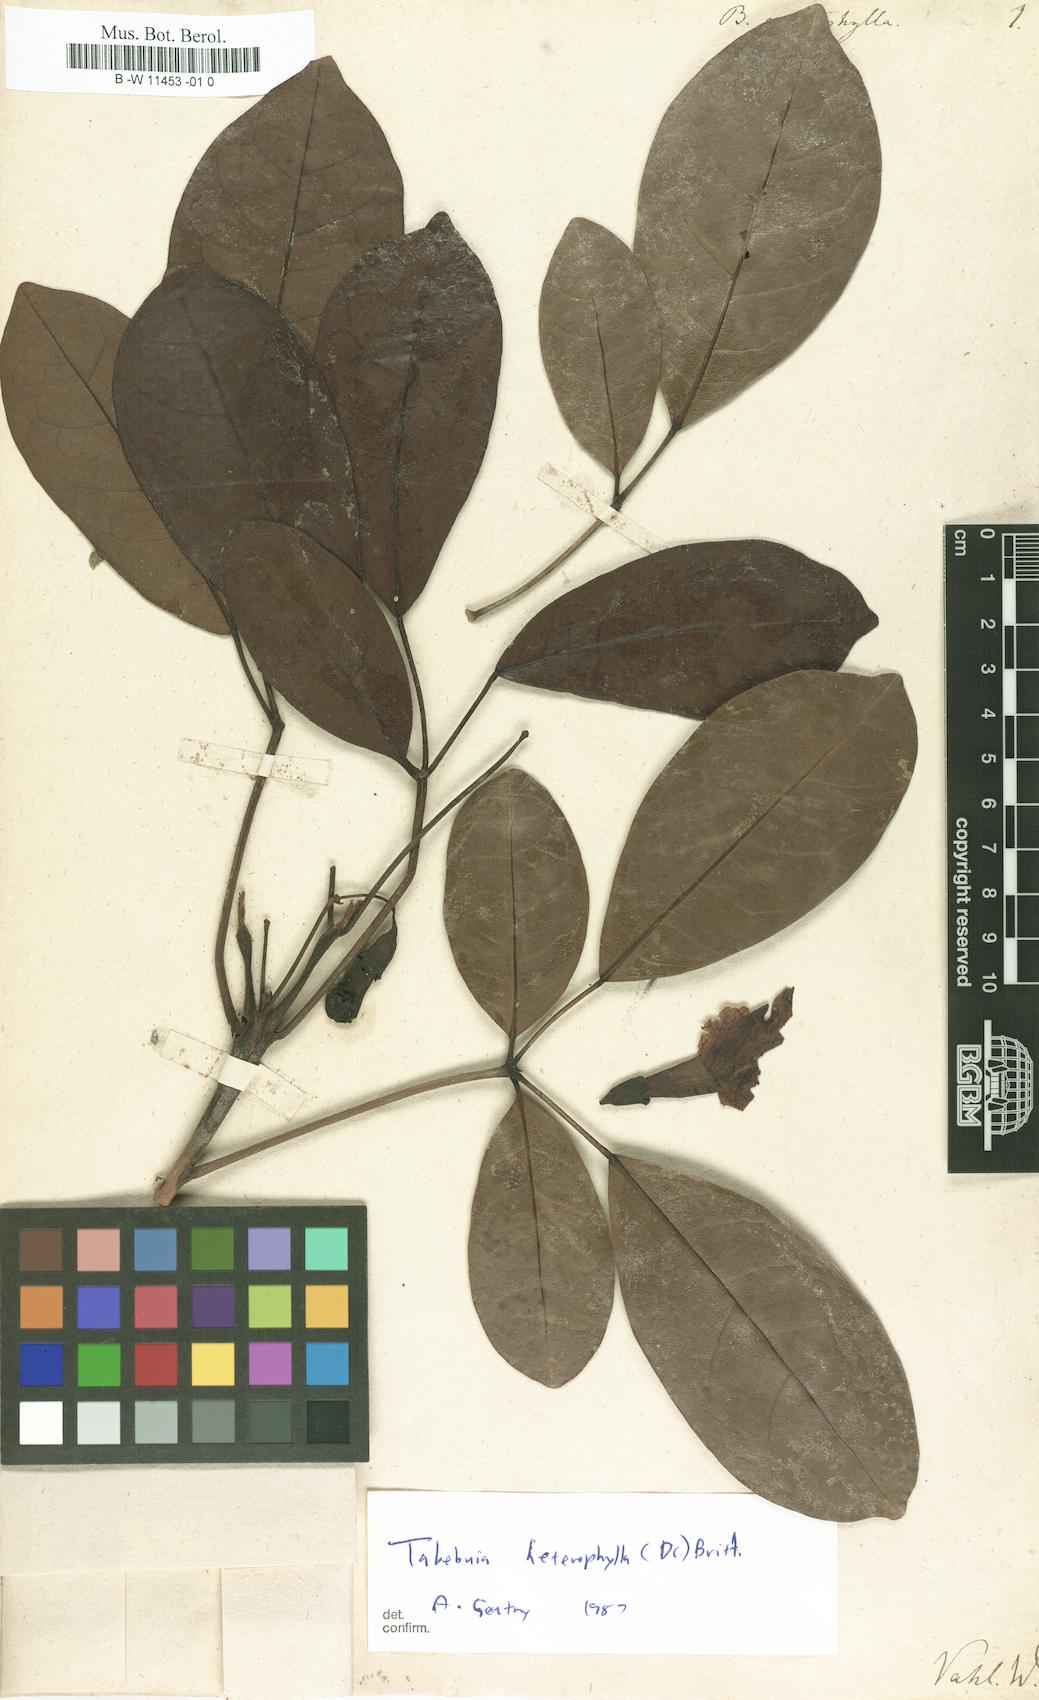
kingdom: Plantae
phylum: Tracheophyta
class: Magnoliopsida
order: Lamiales
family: Bignoniaceae
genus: Bignonia
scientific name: Bignonia pentaphylla
